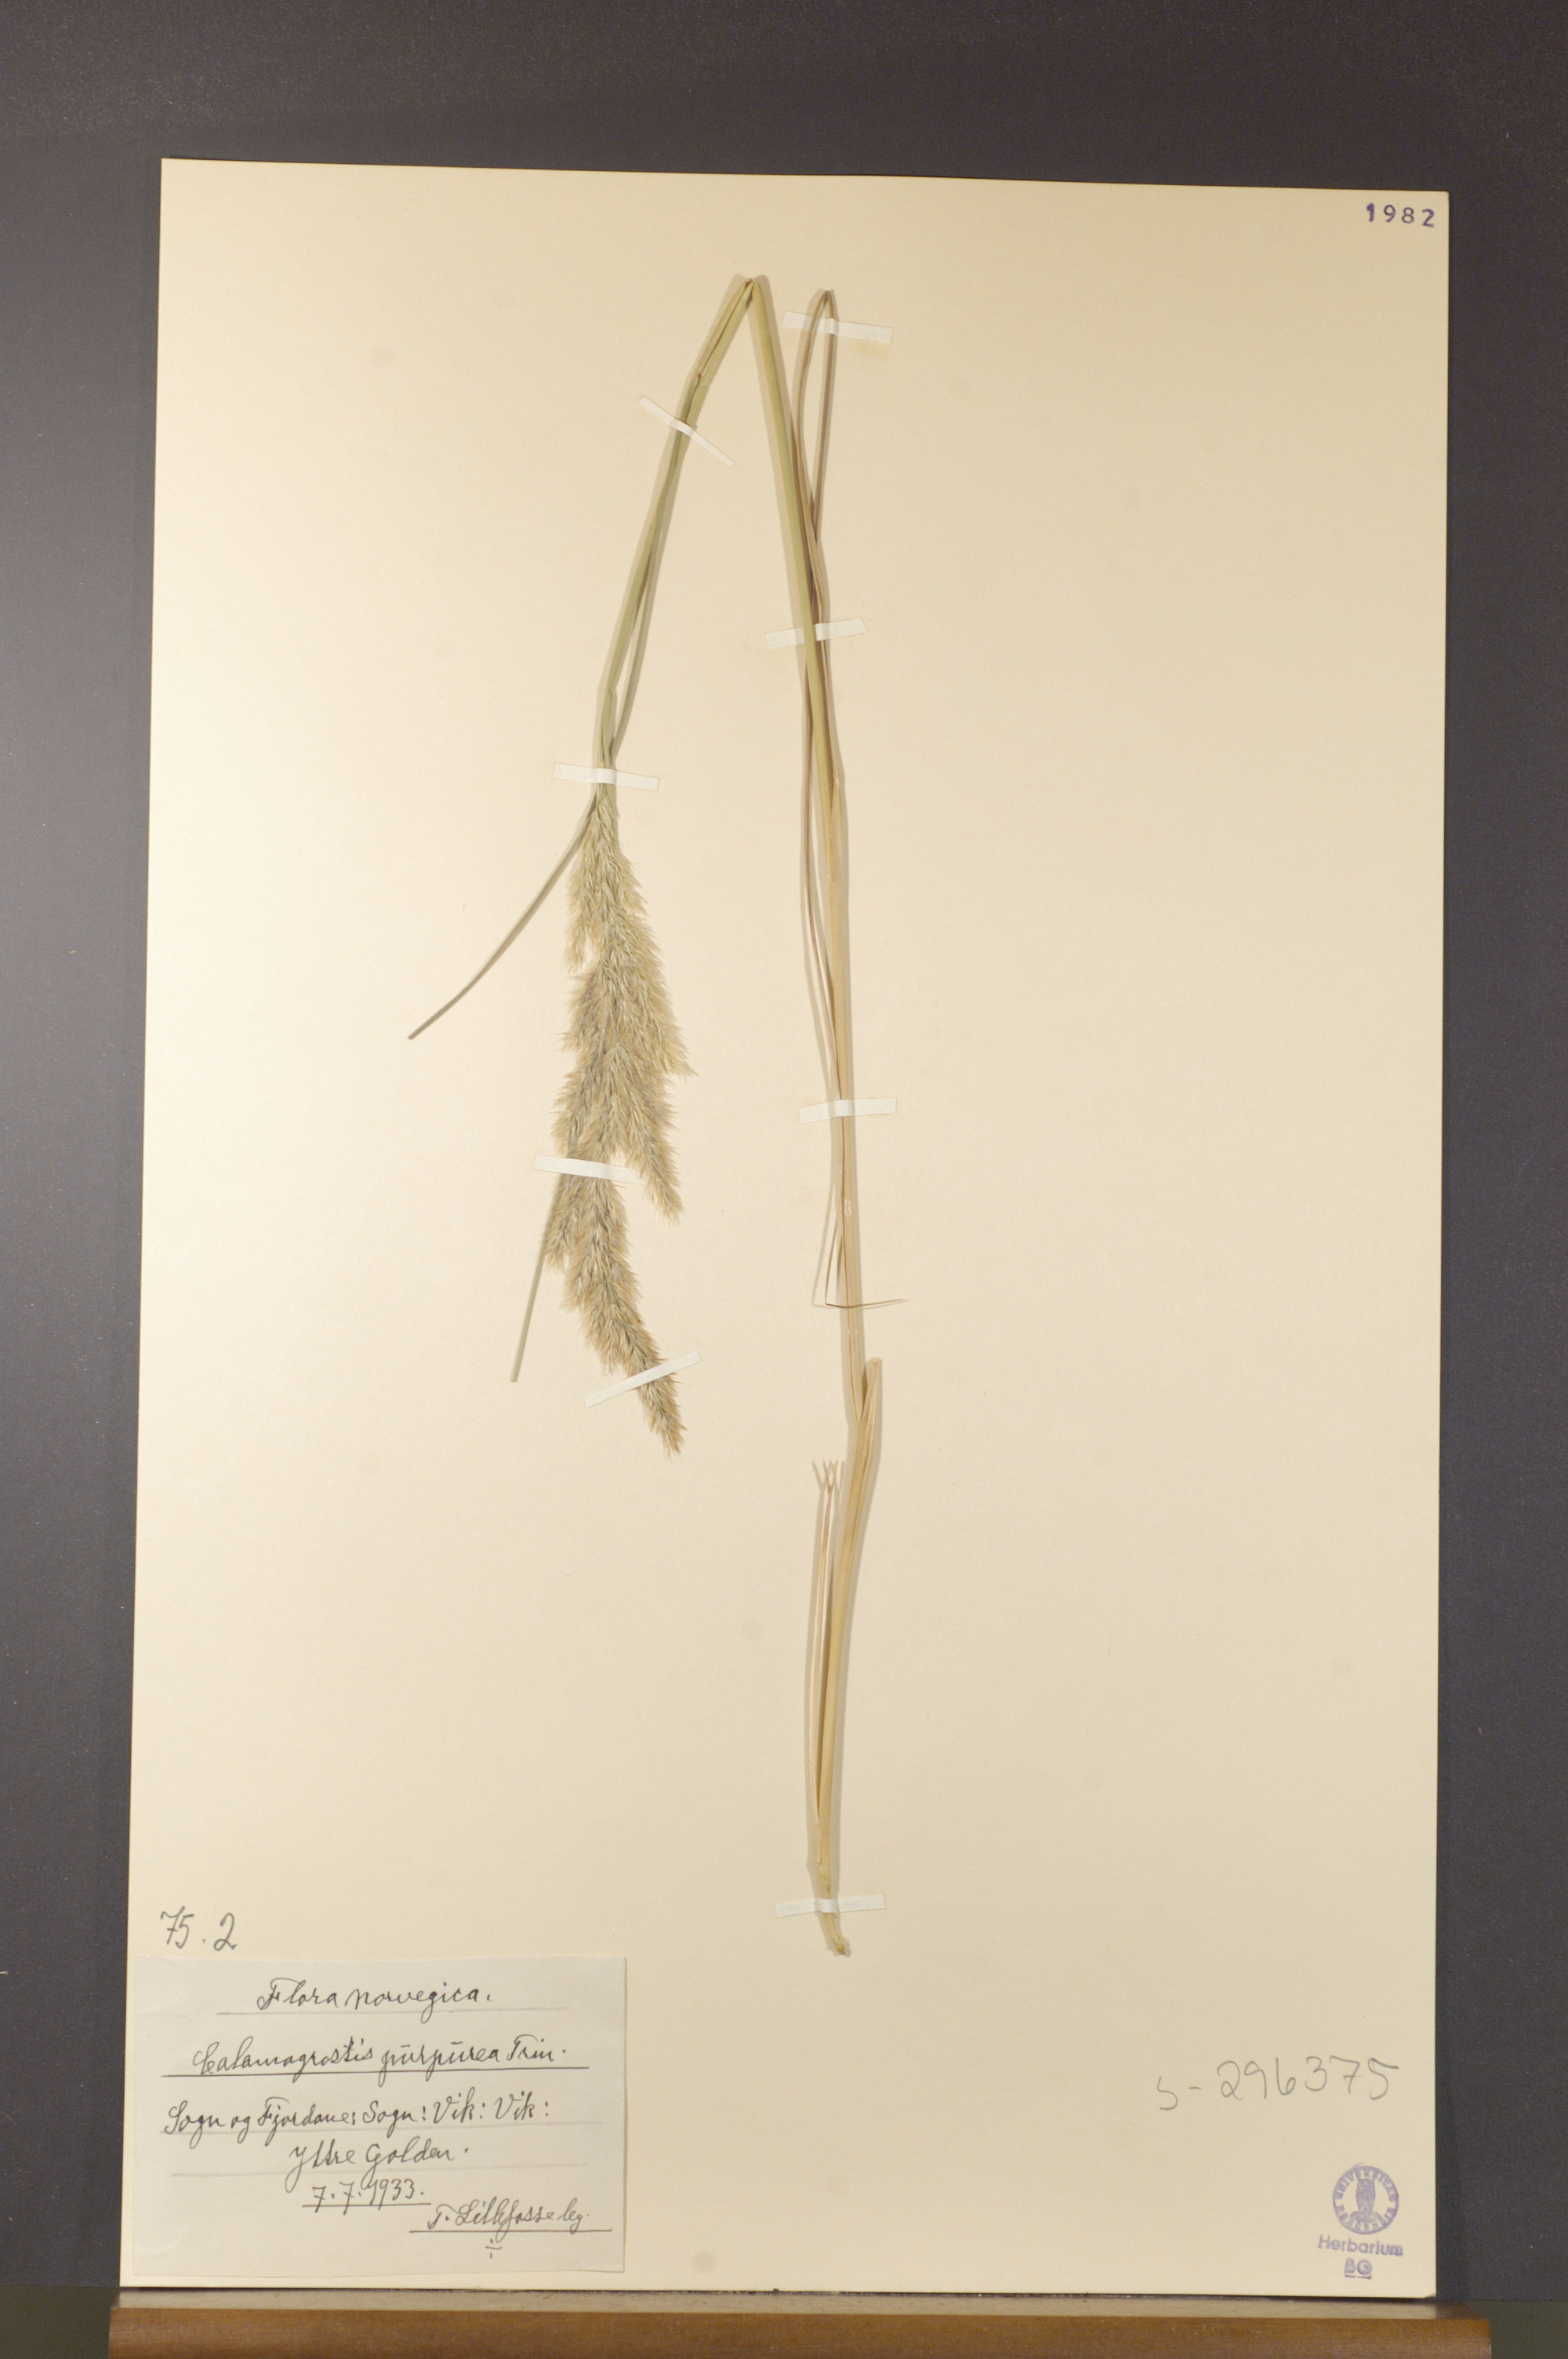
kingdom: Plantae
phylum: Tracheophyta
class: Liliopsida
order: Poales
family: Poaceae
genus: Calamagrostis
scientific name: Calamagrostis purpurea
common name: Scandinavian small-reed
